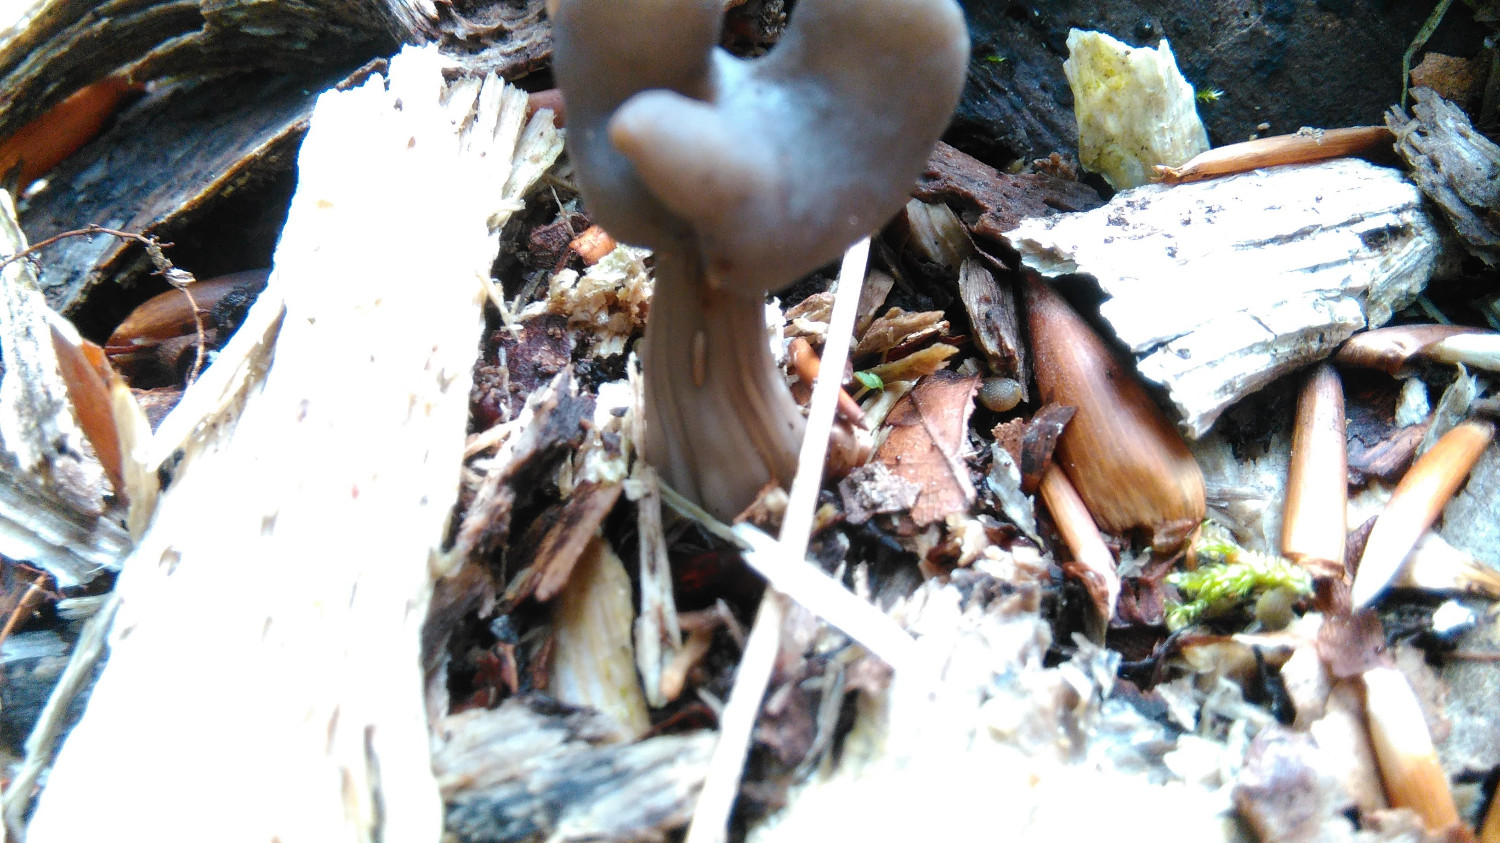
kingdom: Fungi
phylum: Ascomycota
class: Pezizomycetes
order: Pezizales
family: Helvellaceae
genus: Helvella
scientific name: Helvella lacunosa
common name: grubet foldhat
